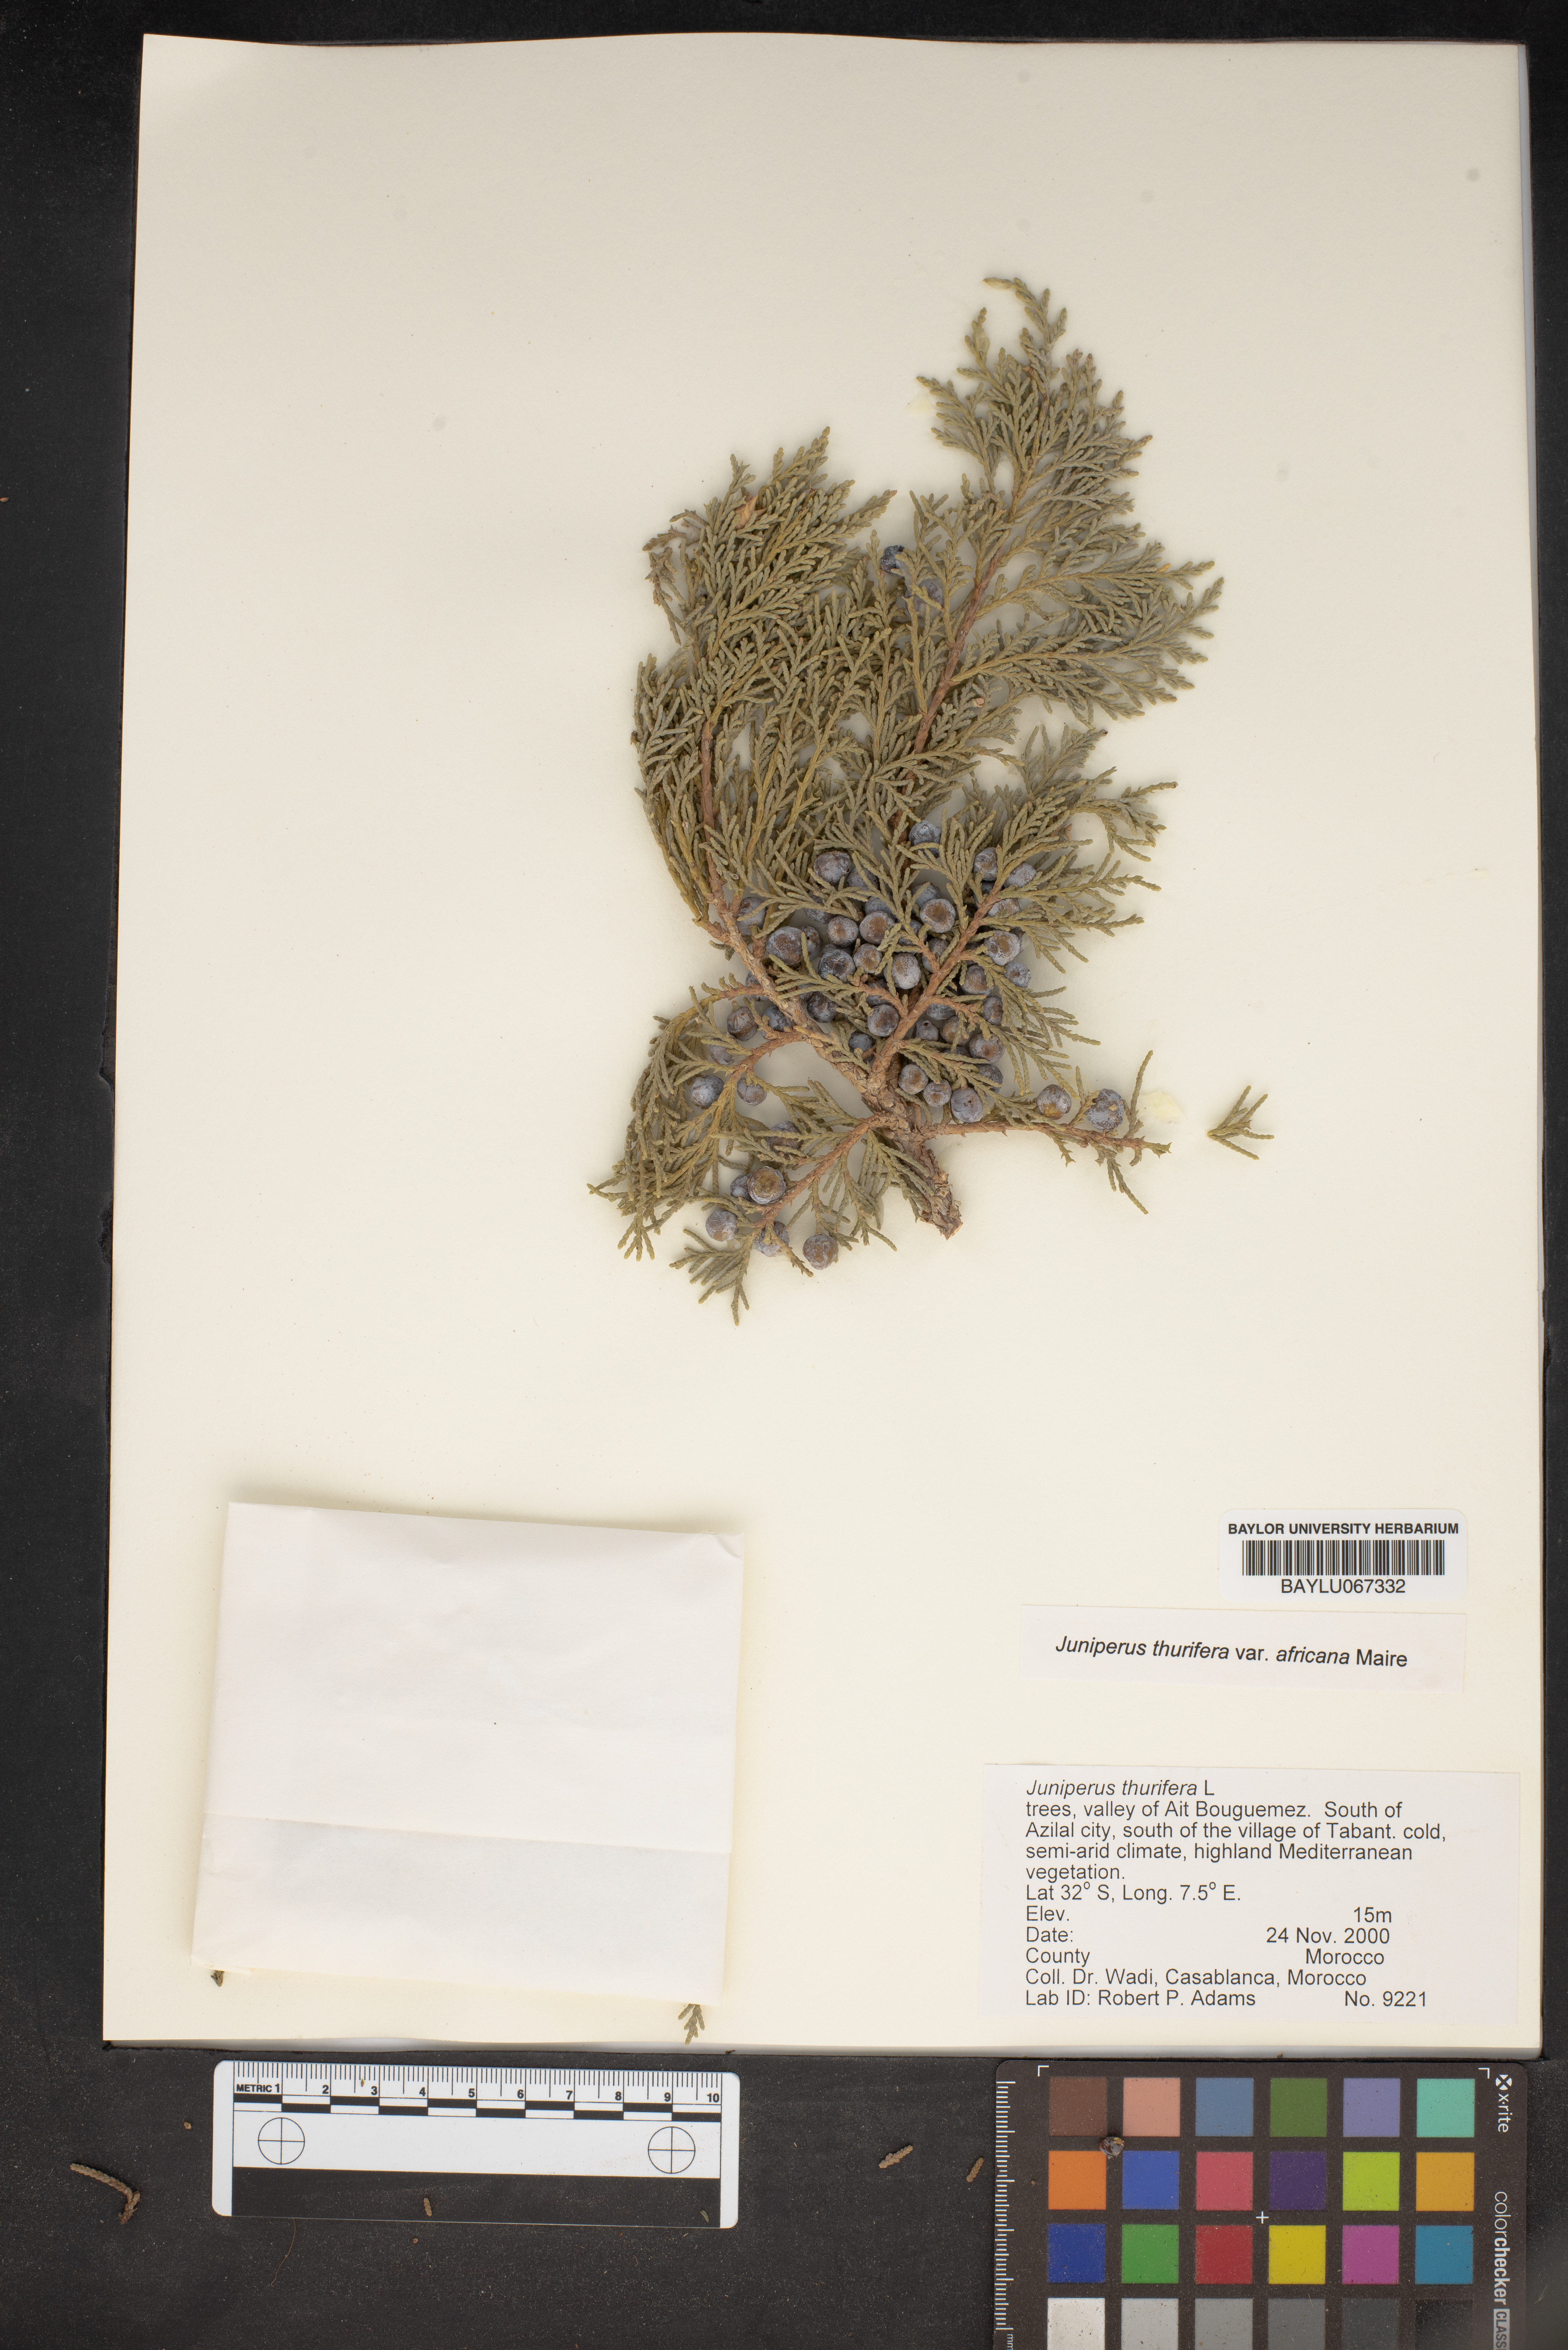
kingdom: Plantae
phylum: Tracheophyta
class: Pinopsida
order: Pinales
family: Cupressaceae
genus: Juniperus
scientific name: Juniperus thurifera
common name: Incense juniper
